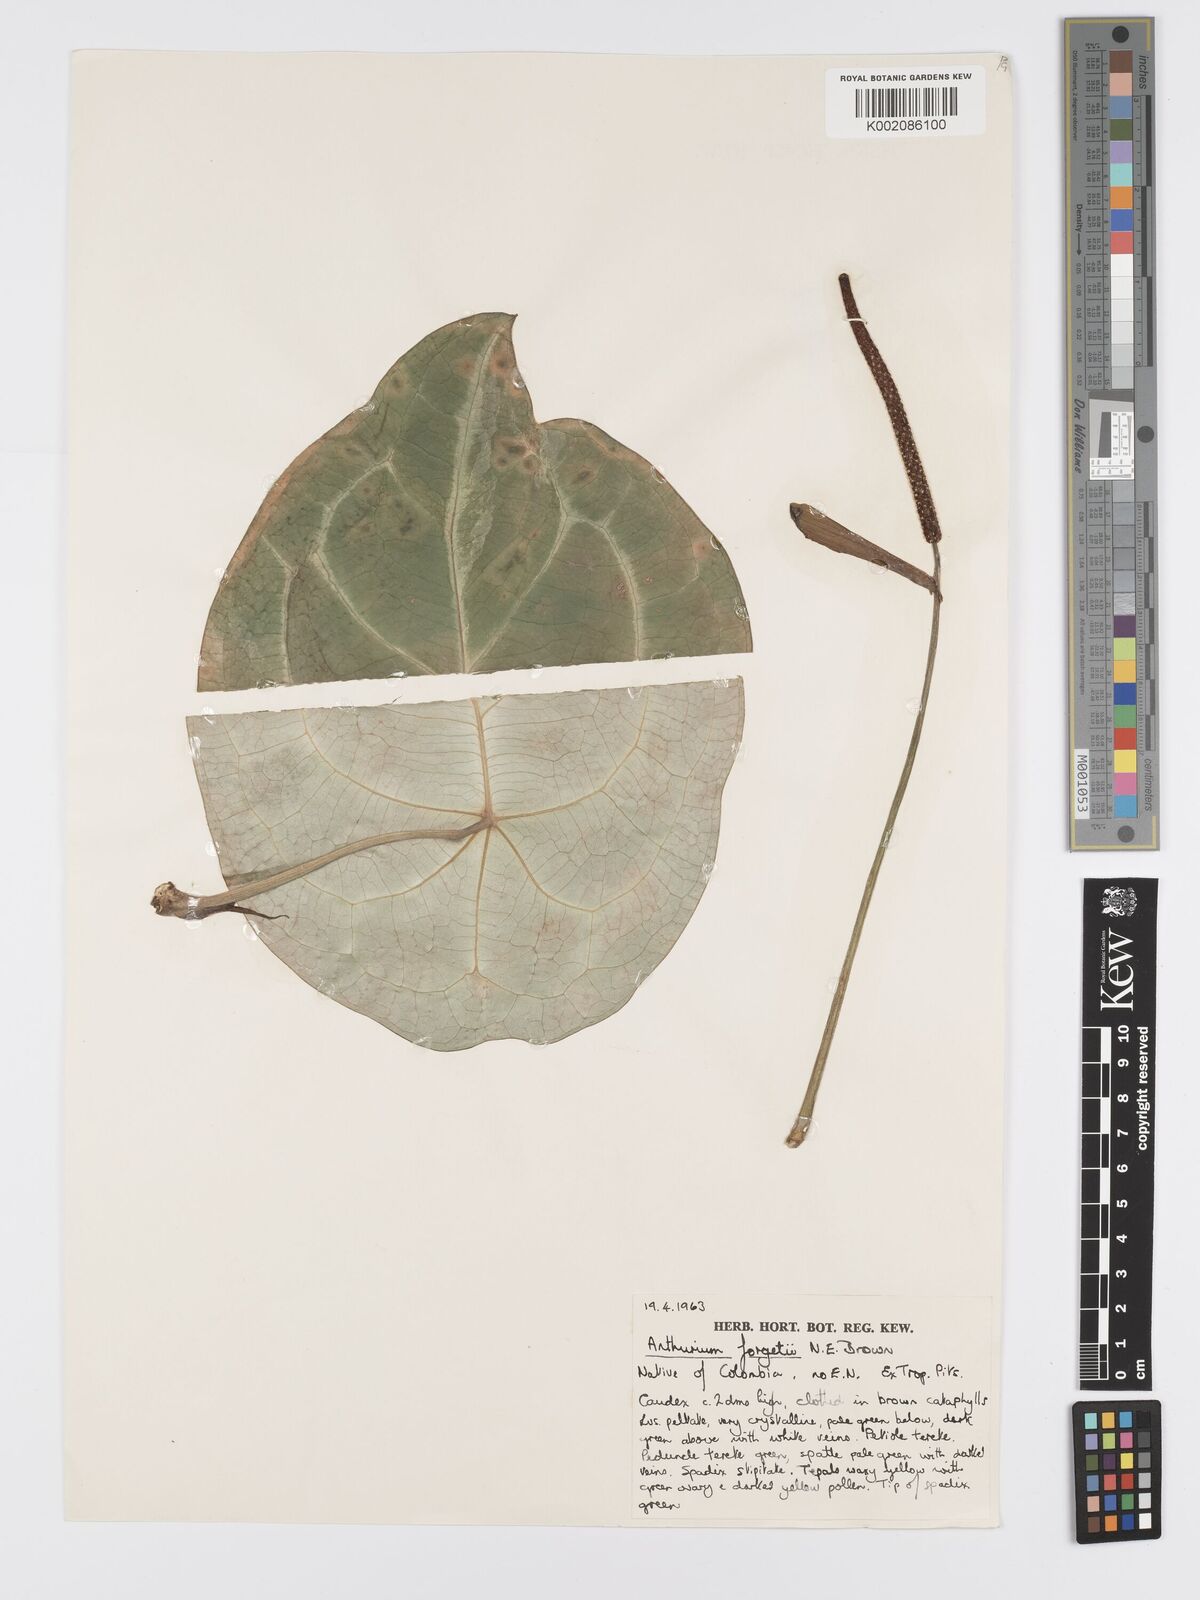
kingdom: Plantae
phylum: Tracheophyta
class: Liliopsida
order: Alismatales
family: Araceae
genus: Anthurium
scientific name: Anthurium forgetii
